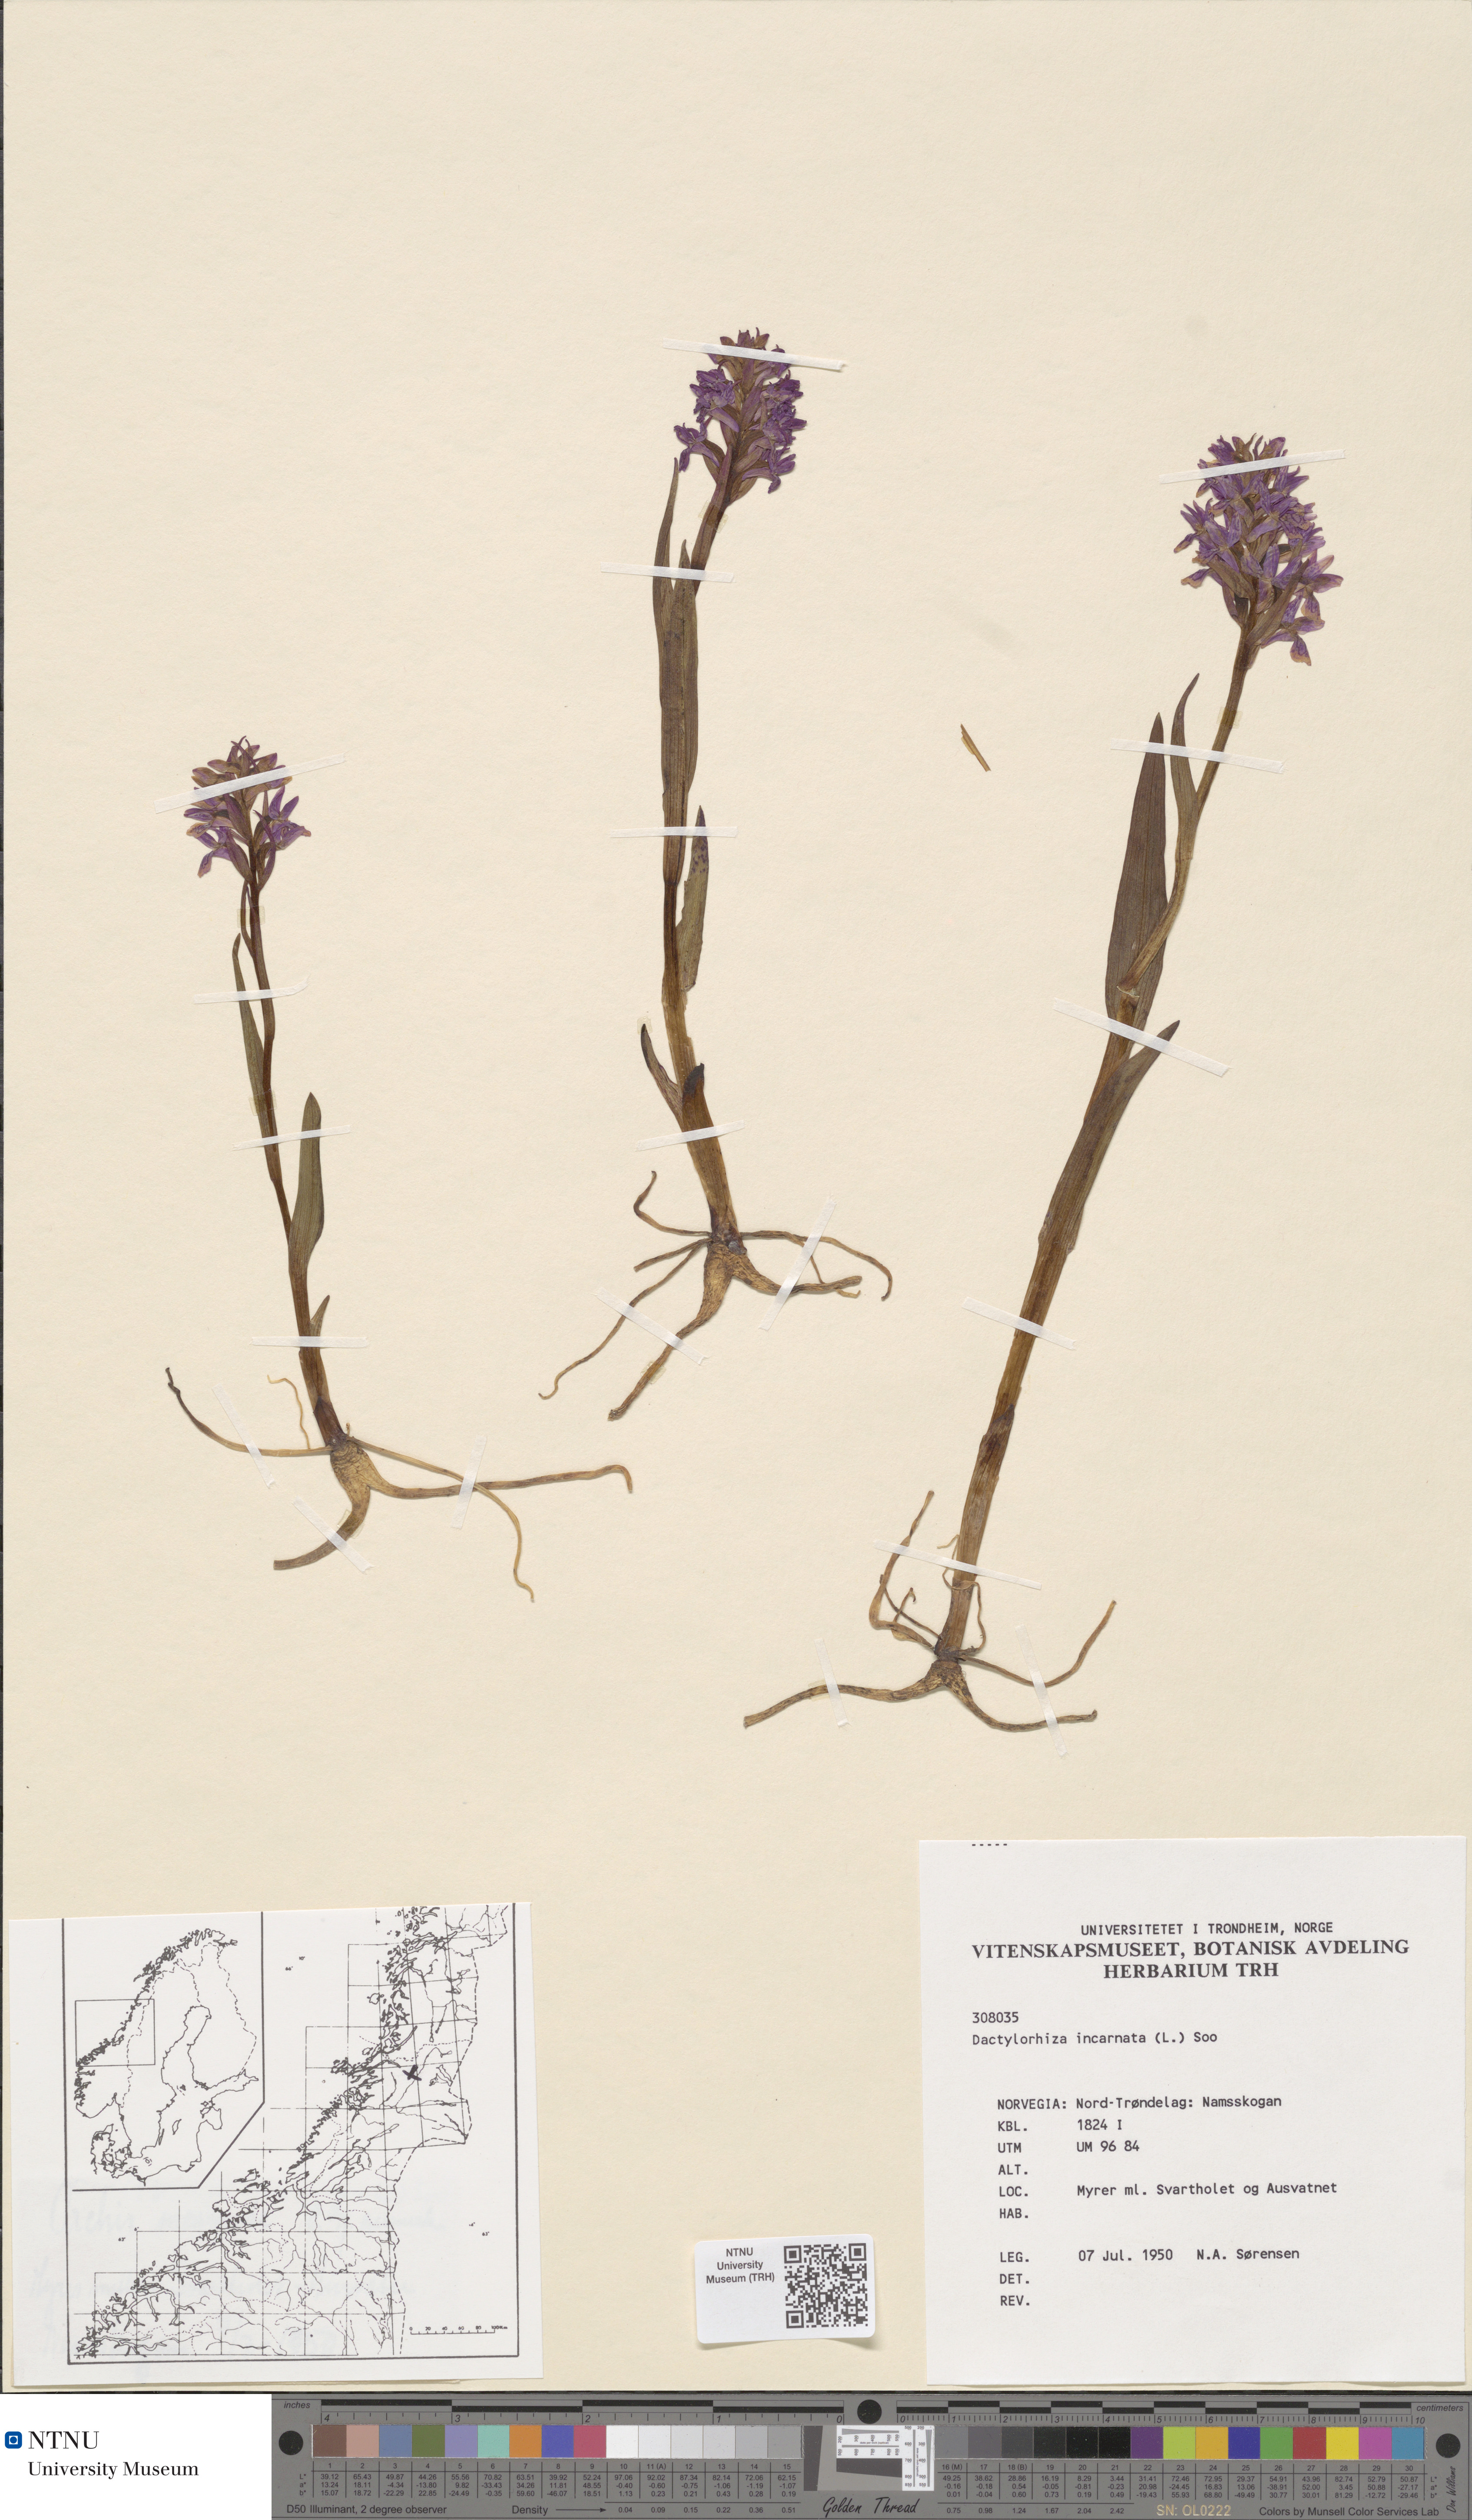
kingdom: Plantae
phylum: Tracheophyta
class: Liliopsida
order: Asparagales
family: Orchidaceae
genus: Dactylorhiza
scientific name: Dactylorhiza incarnata
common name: Early marsh-orchid
